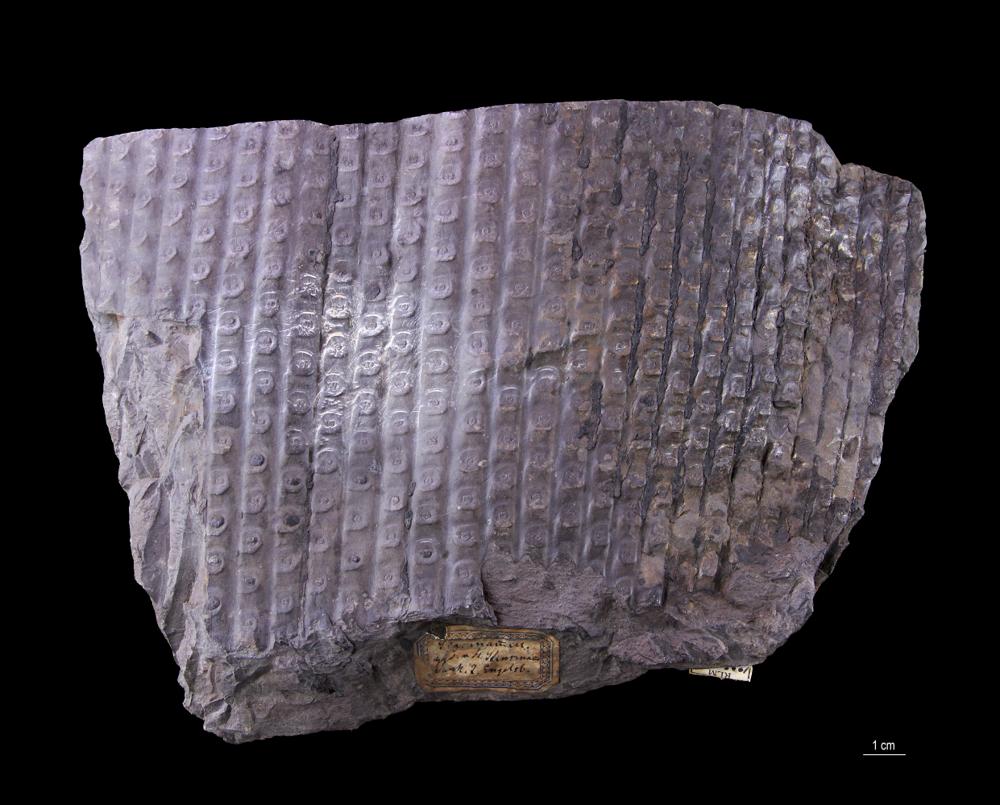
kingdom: Plantae
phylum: Tracheophyta
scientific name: Tracheophyta
